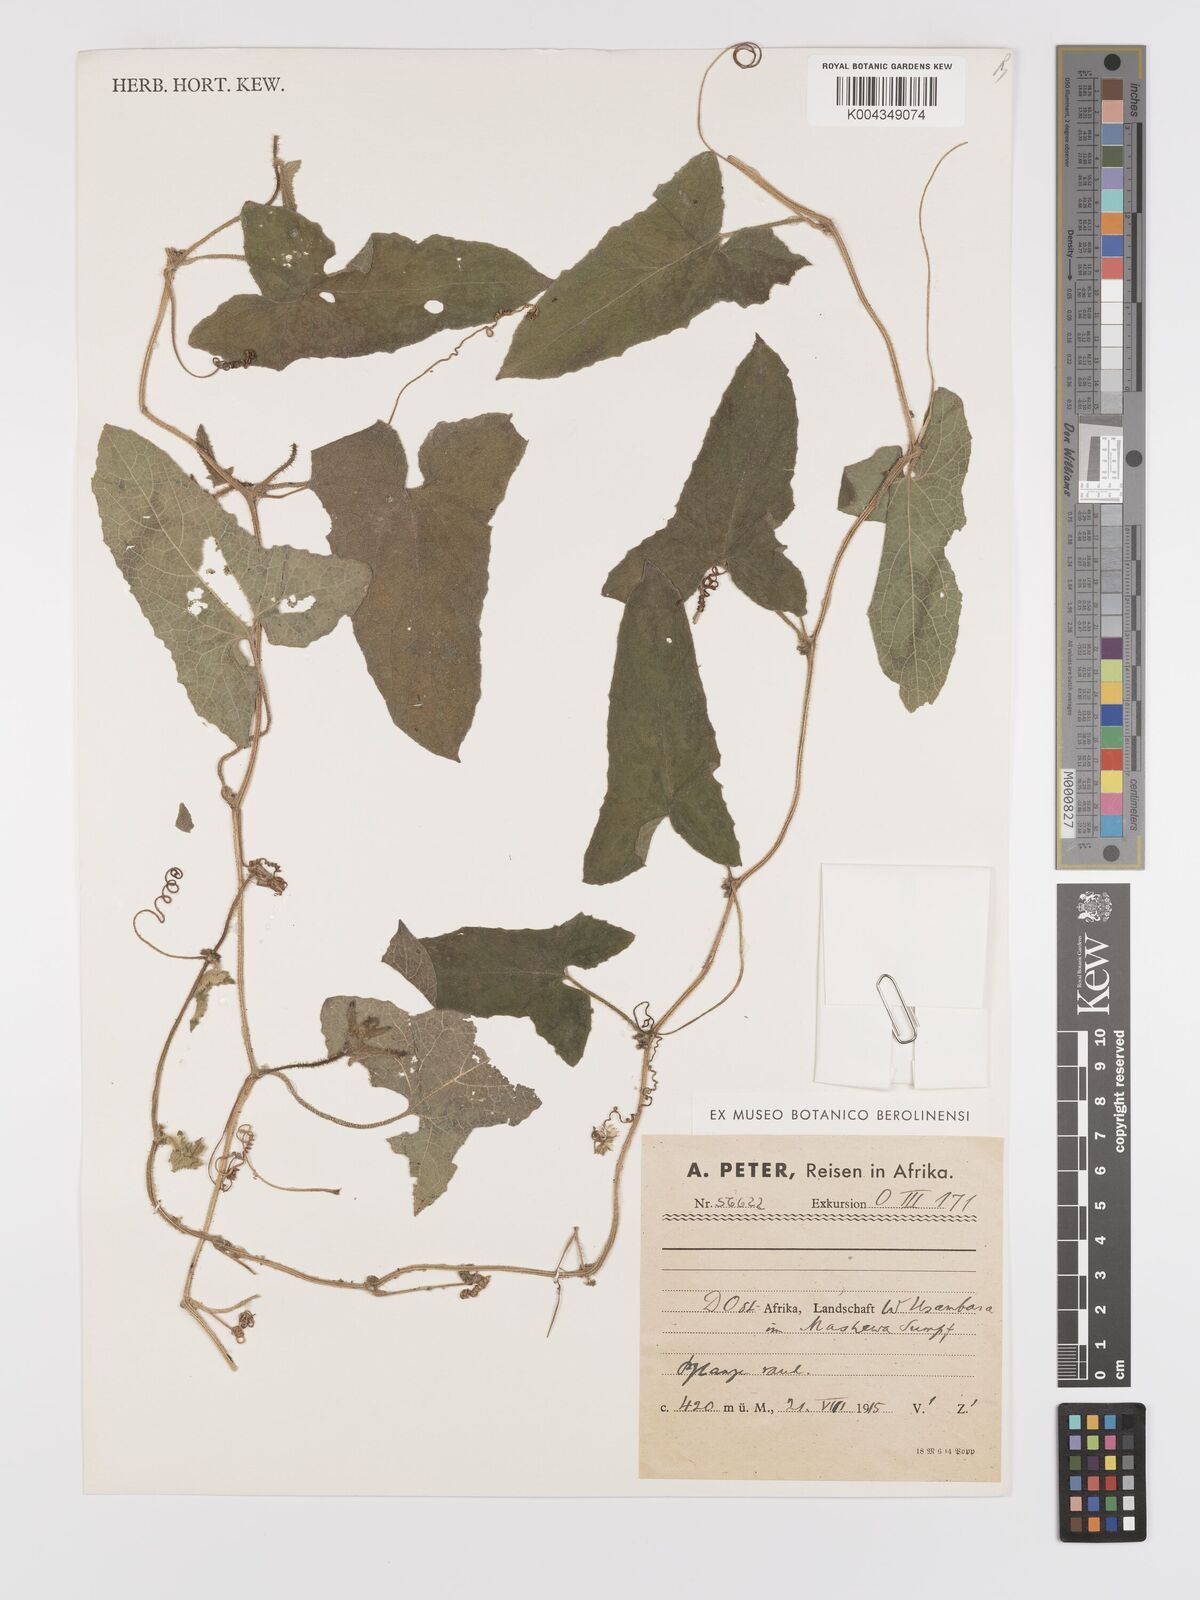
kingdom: Plantae
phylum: Tracheophyta
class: Magnoliopsida
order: Cucurbitales
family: Cucurbitaceae
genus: Cucumis
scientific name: Cucumis maderaspatanus
